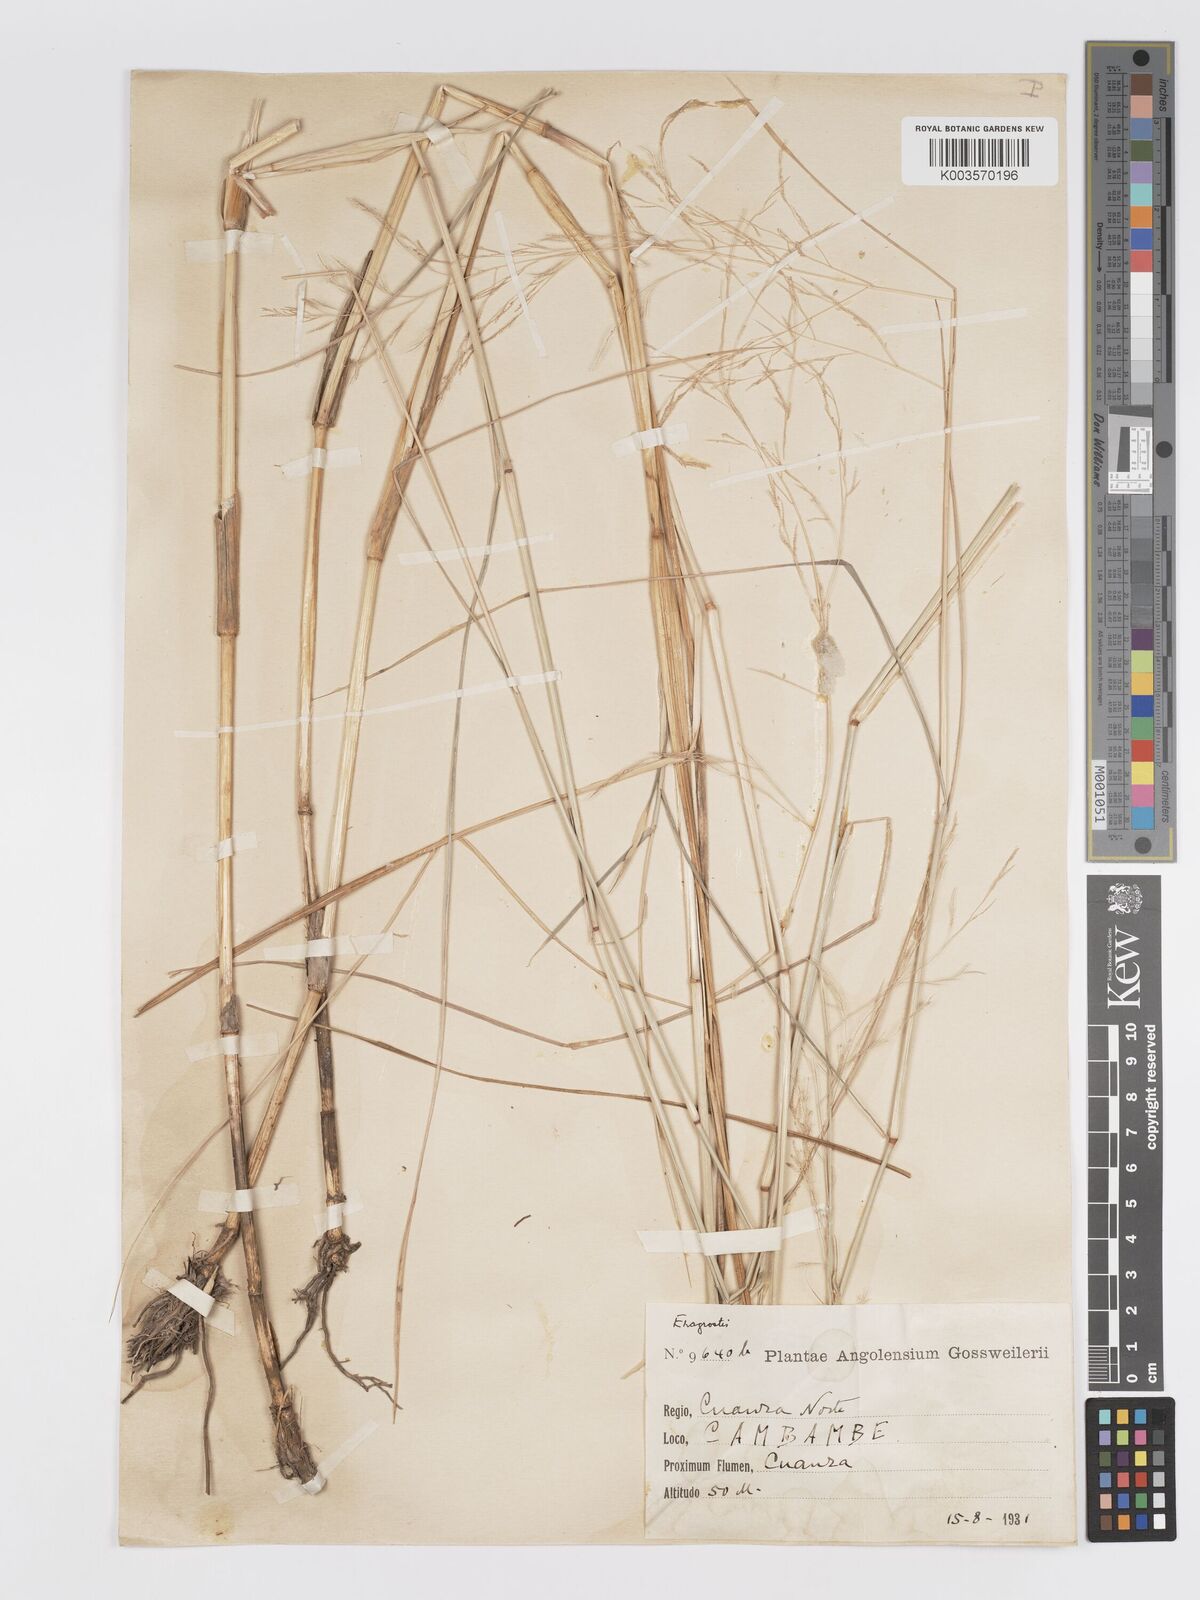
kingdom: Plantae
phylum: Tracheophyta
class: Liliopsida
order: Poales
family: Poaceae
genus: Eragrostis
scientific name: Eragrostis heteromera
